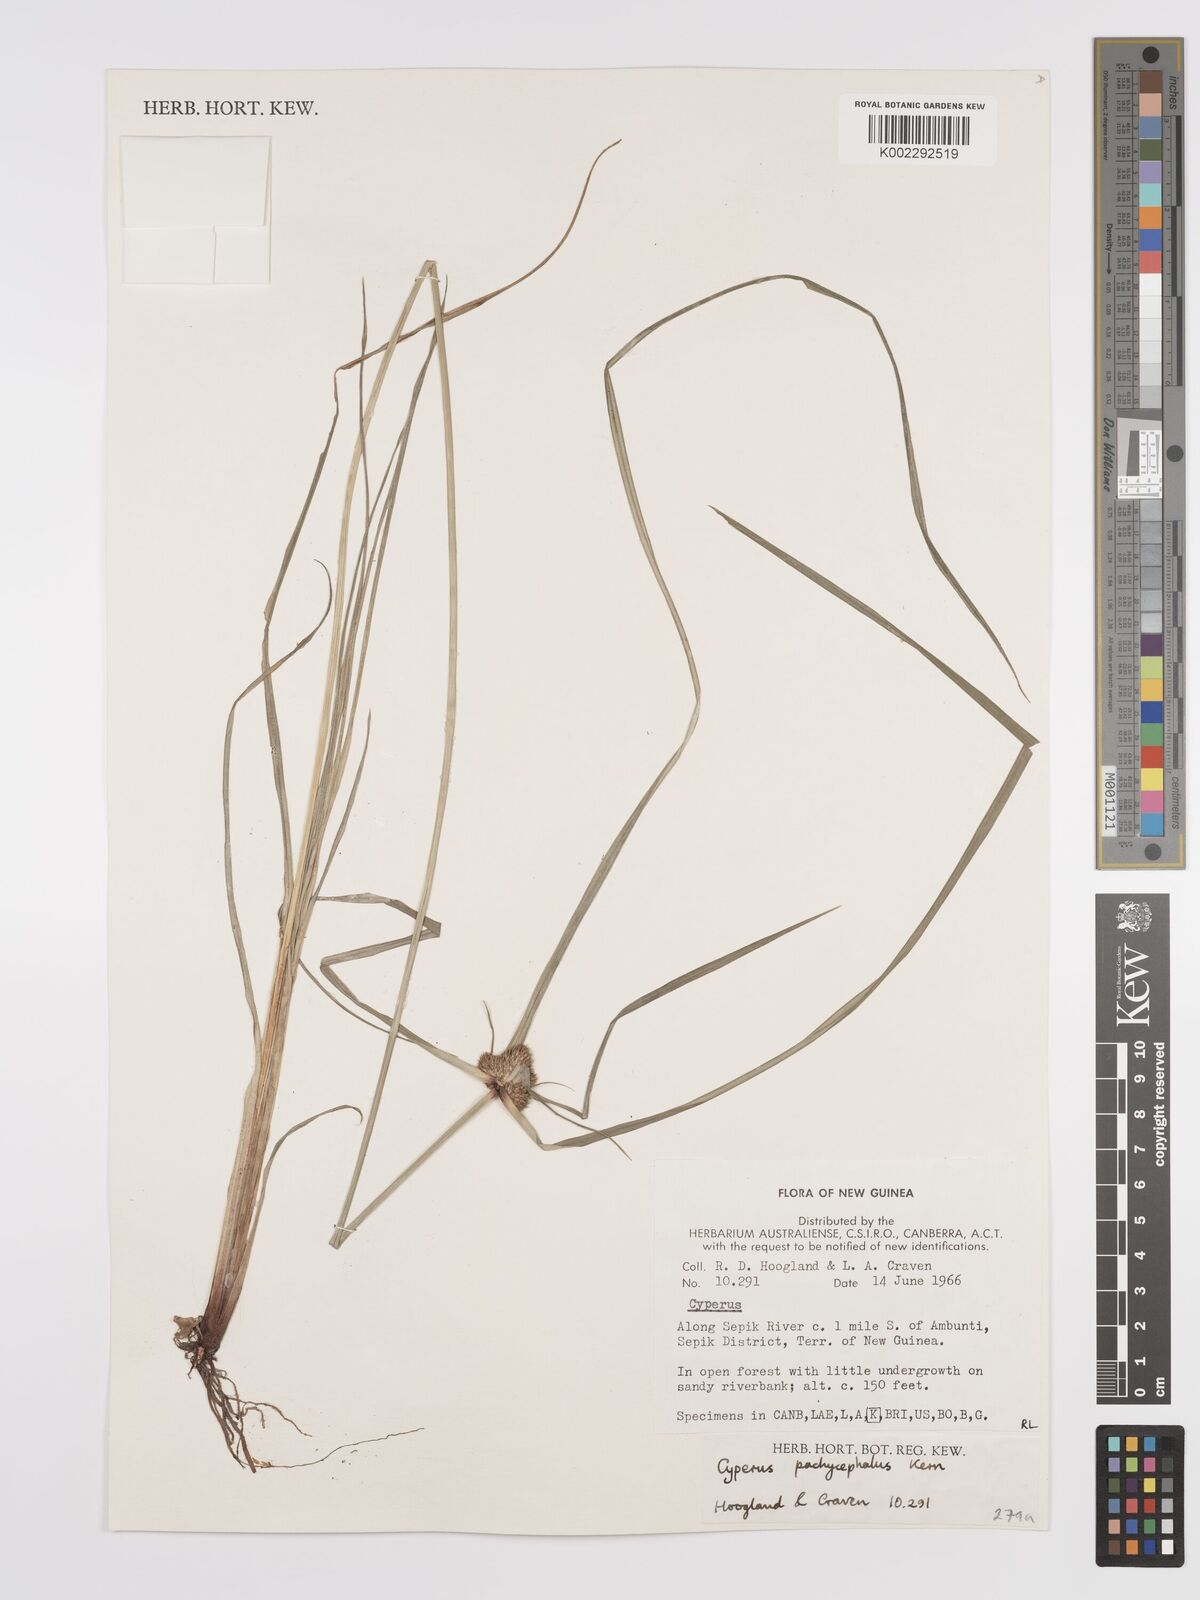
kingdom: Plantae
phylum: Tracheophyta
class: Liliopsida
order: Poales
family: Cyperaceae
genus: Cyperus
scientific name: Cyperus pachycephalus
